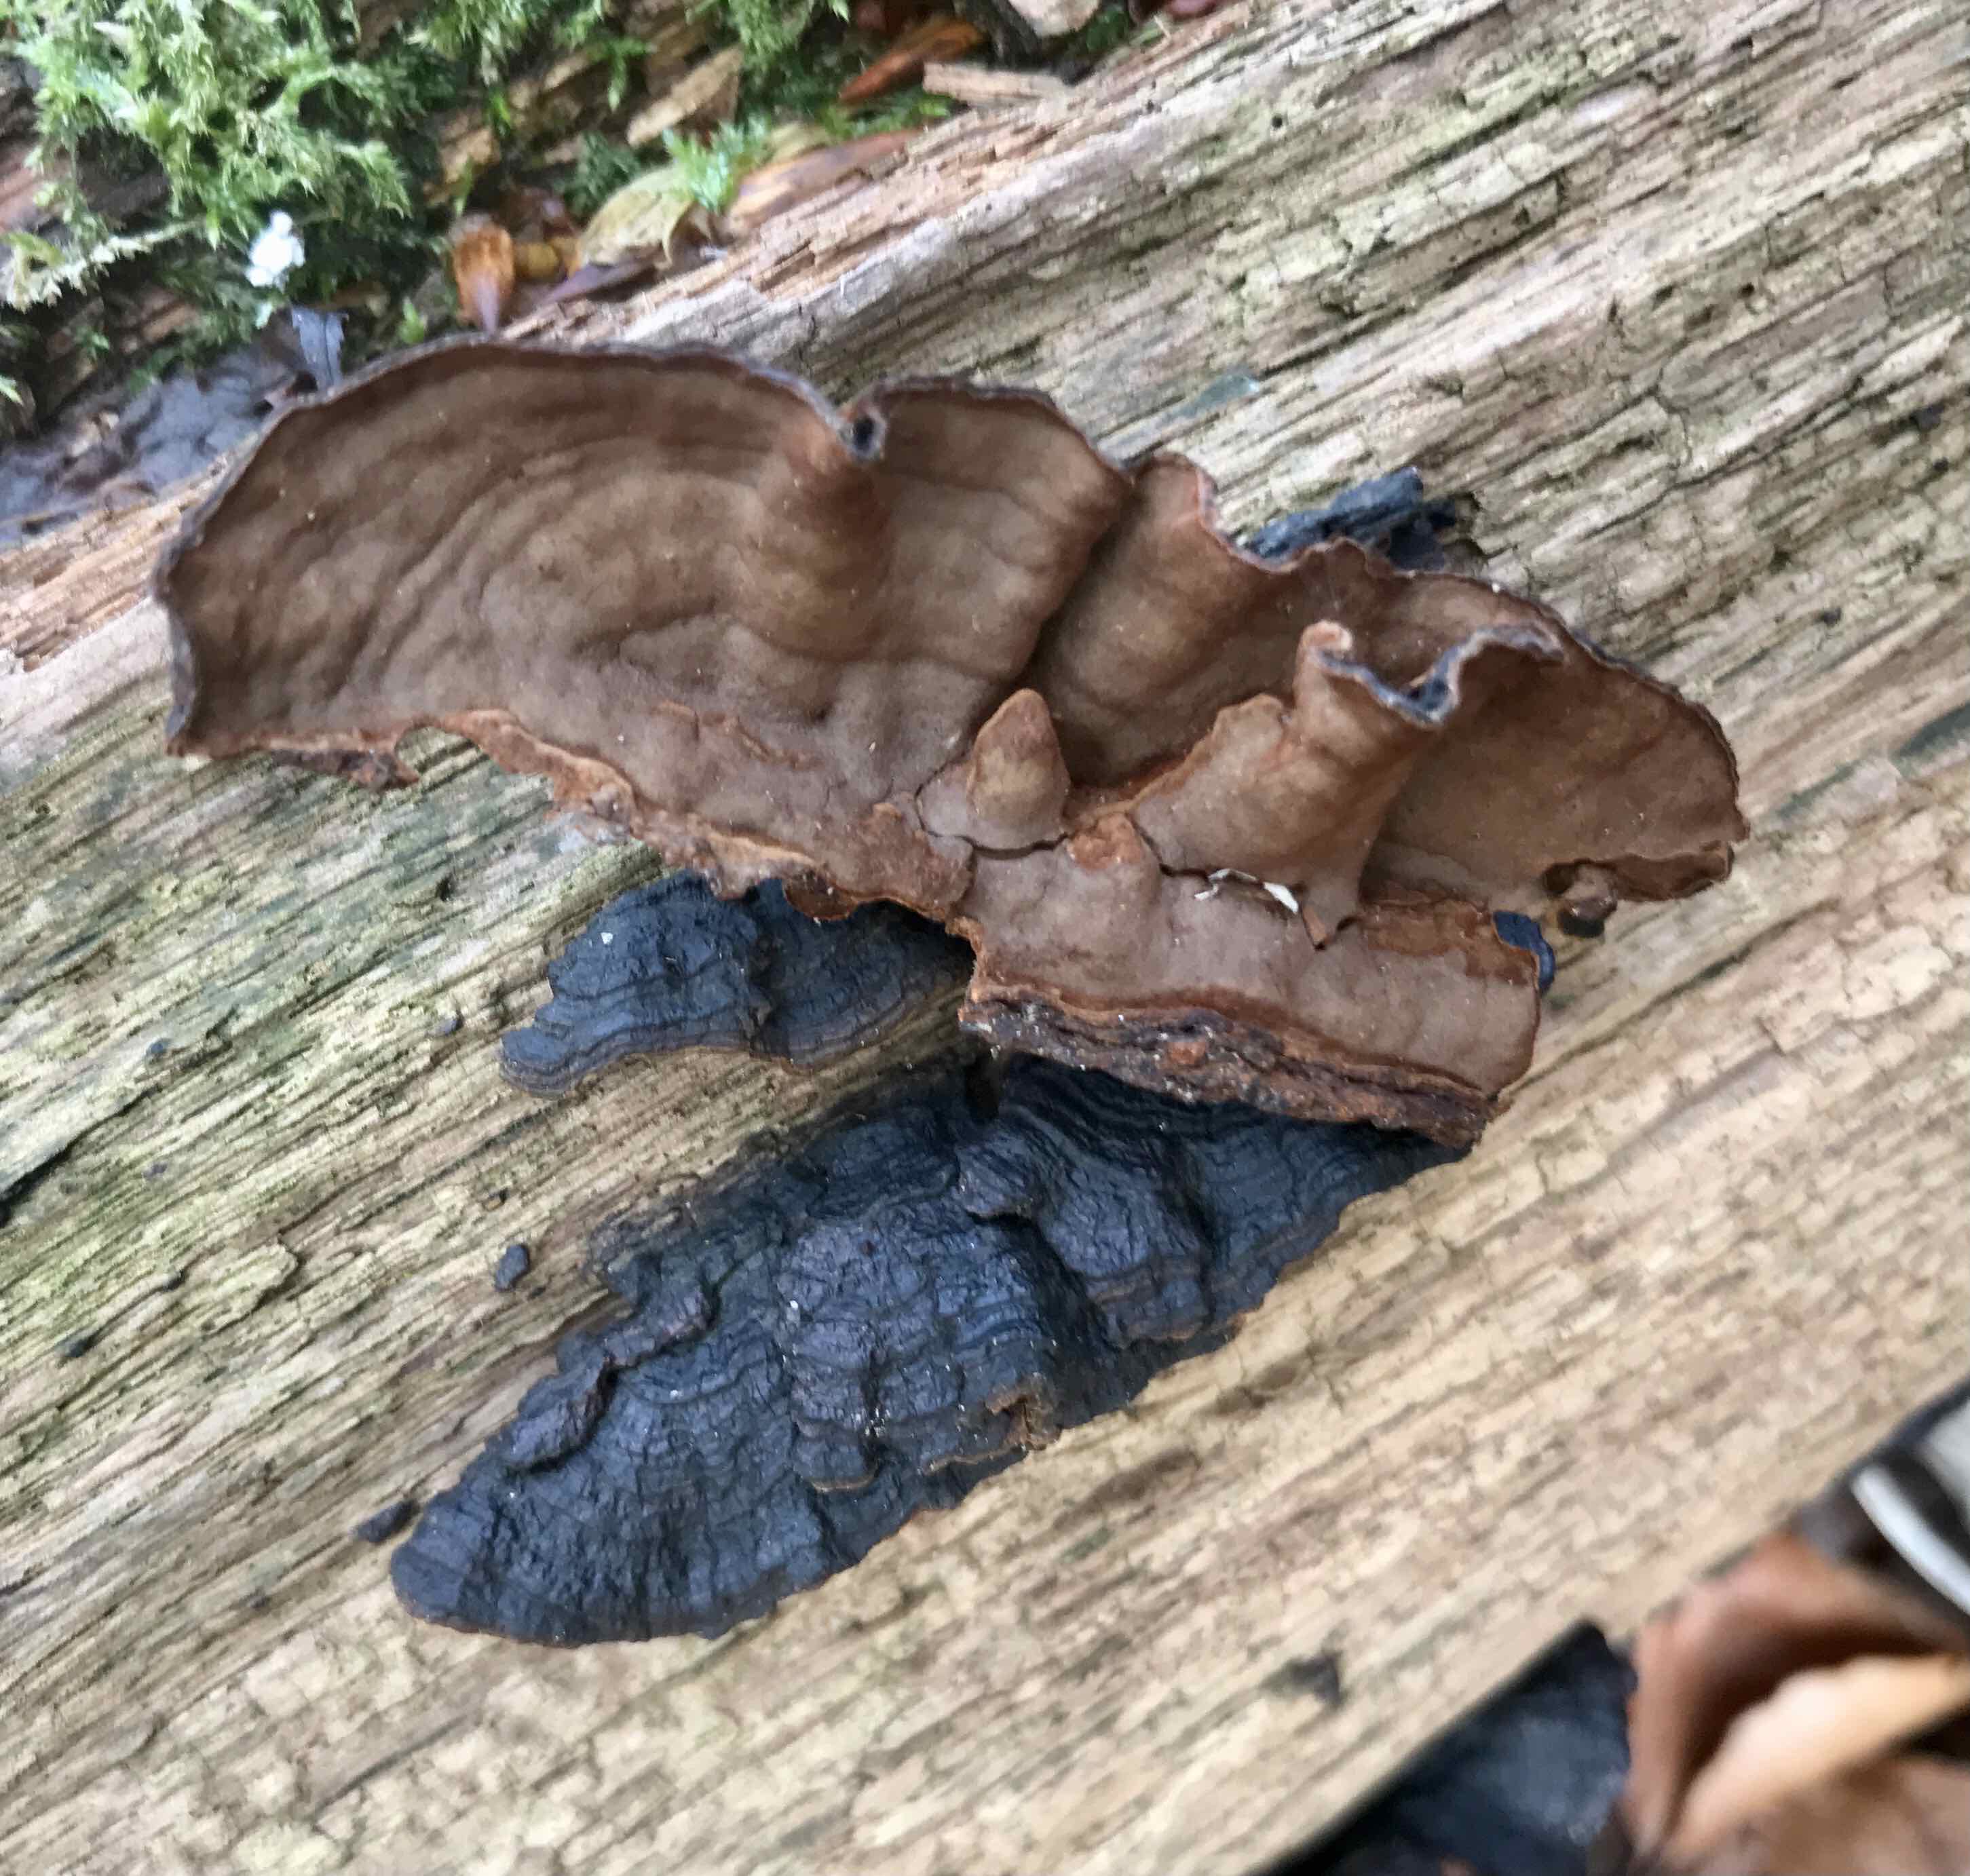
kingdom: Fungi
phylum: Basidiomycota
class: Agaricomycetes
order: Hymenochaetales
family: Hymenochaetaceae
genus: Hymenochaete
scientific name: Hymenochaete rubiginosa
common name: stiv ruslædersvamp
